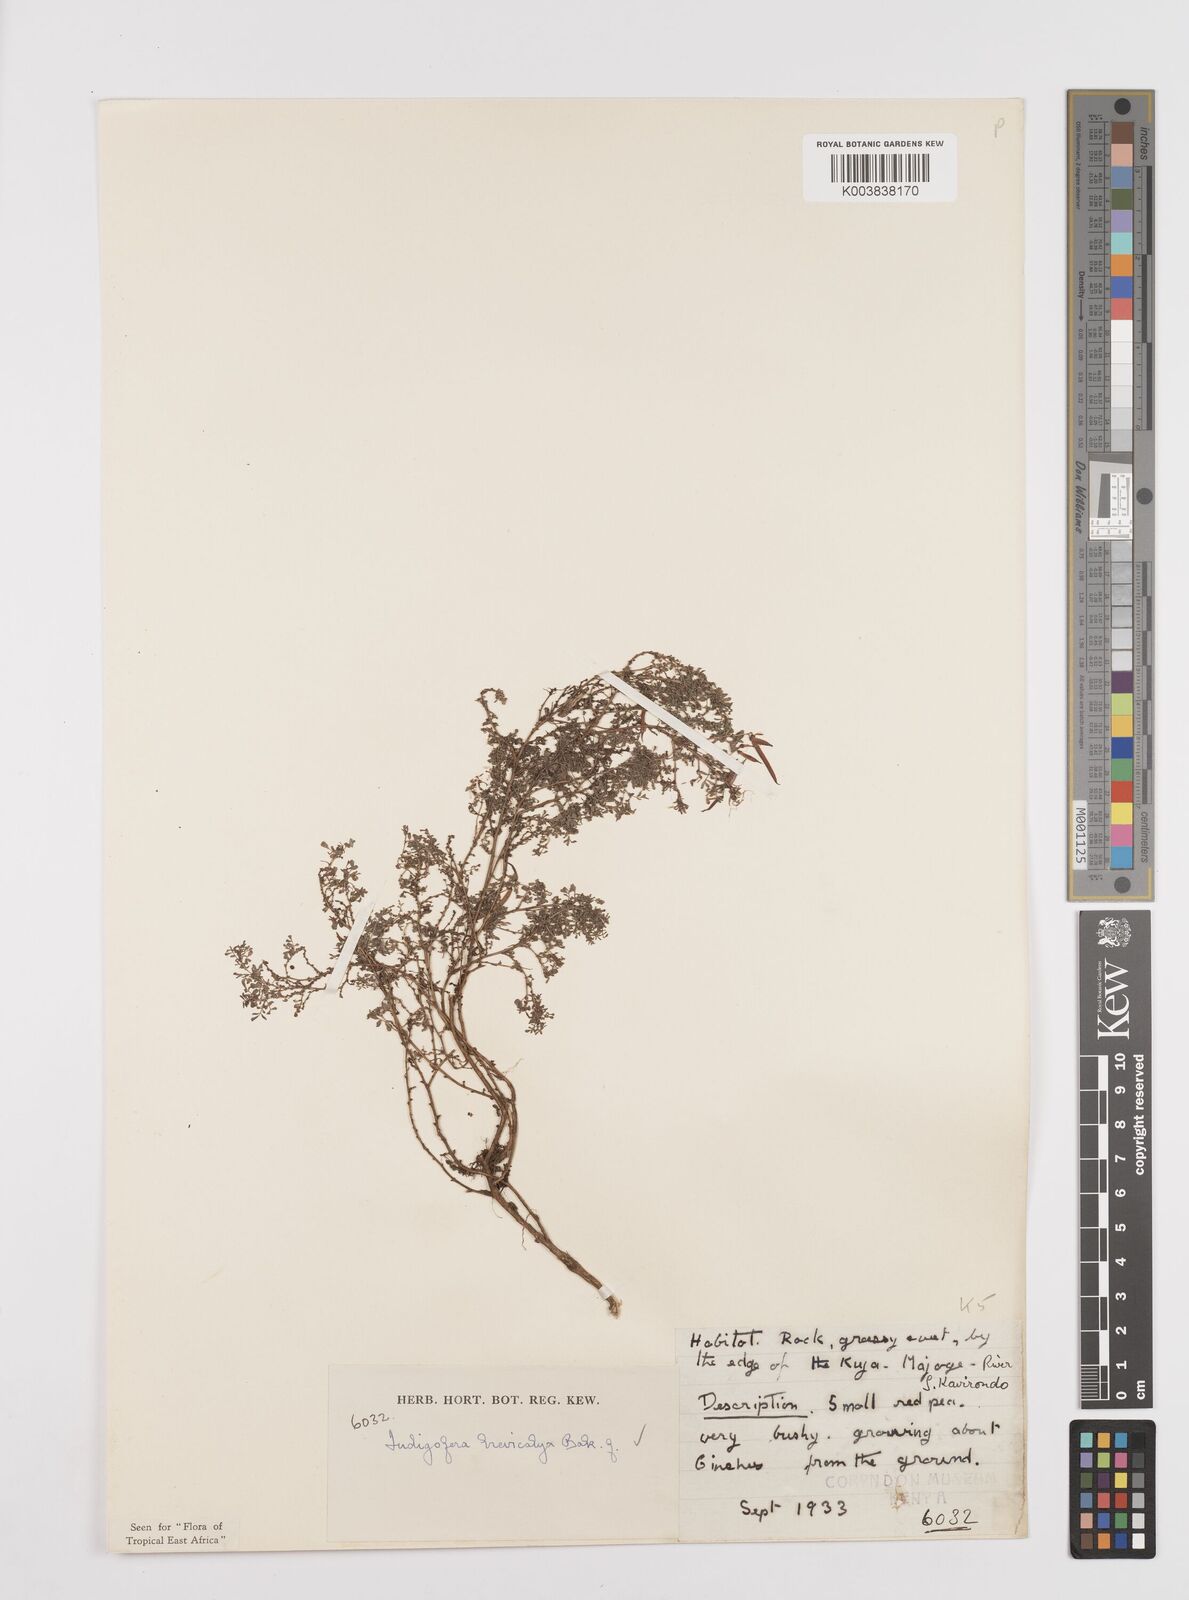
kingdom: Plantae
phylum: Tracheophyta
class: Magnoliopsida
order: Fabales
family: Fabaceae
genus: Indigofera
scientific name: Indigofera brevicalyx
